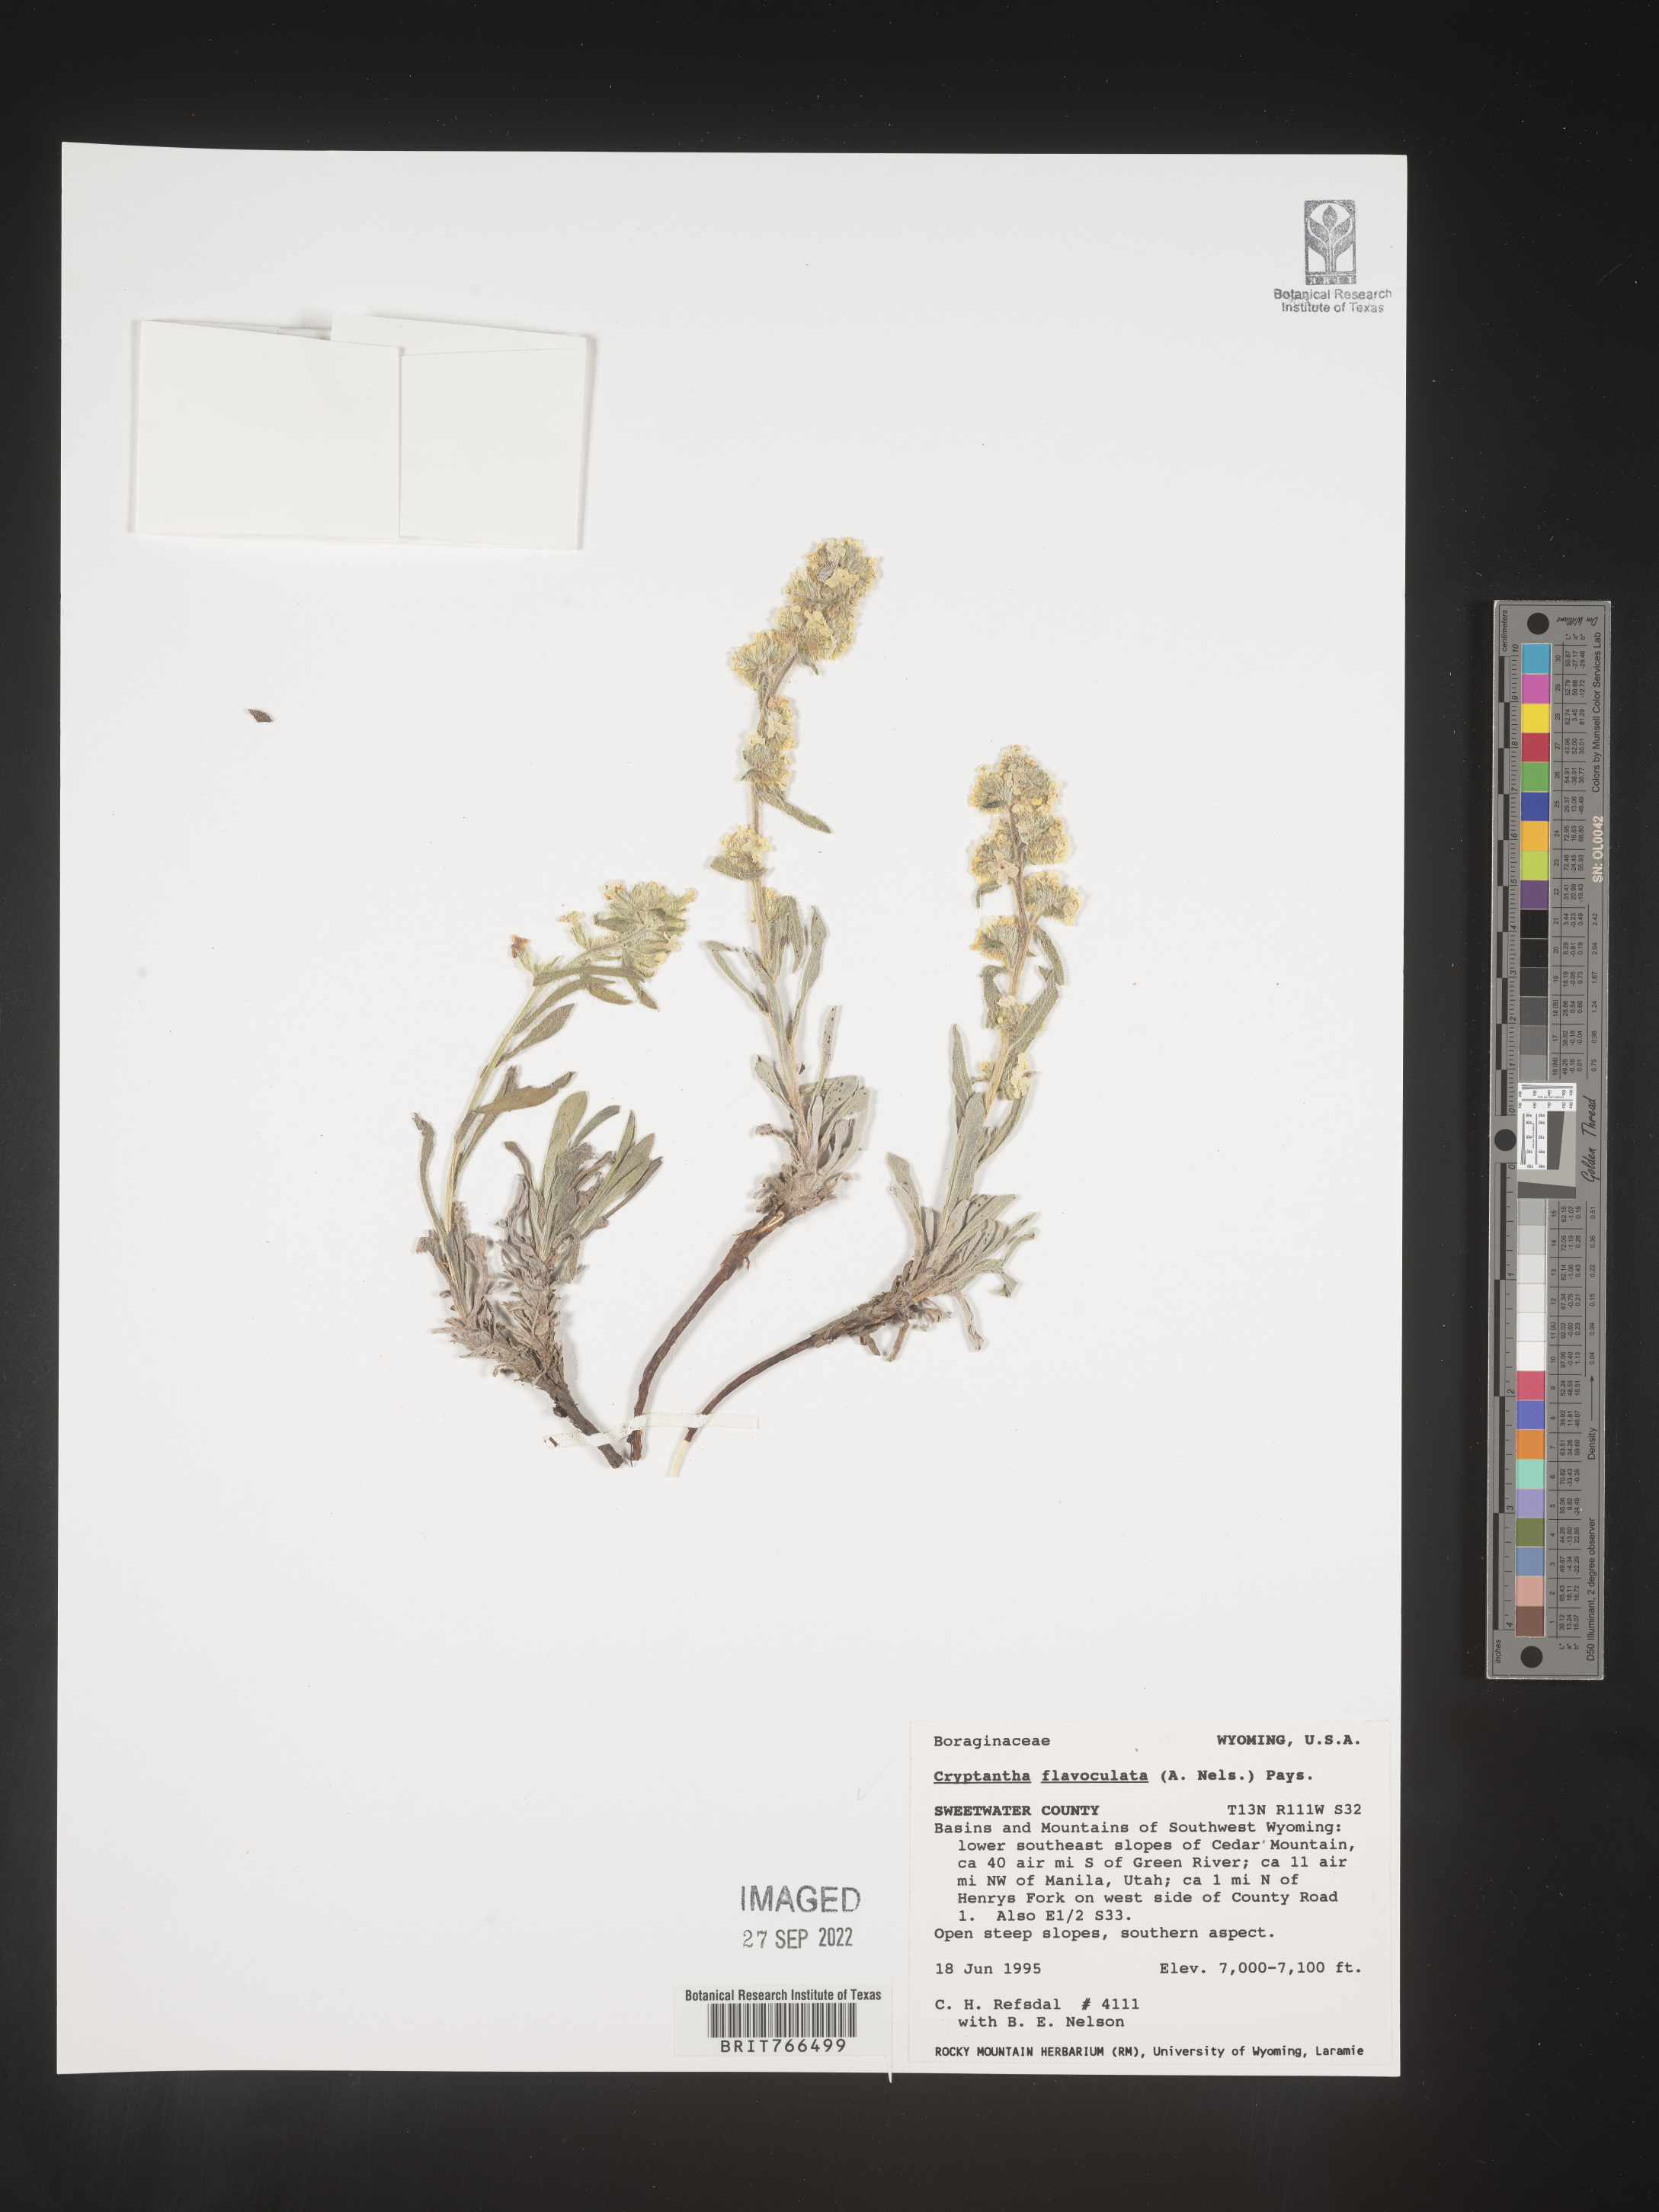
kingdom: Plantae
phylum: Tracheophyta
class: Magnoliopsida
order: Boraginales
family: Boraginaceae
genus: Oreocarya
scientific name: Oreocarya flavoculata
